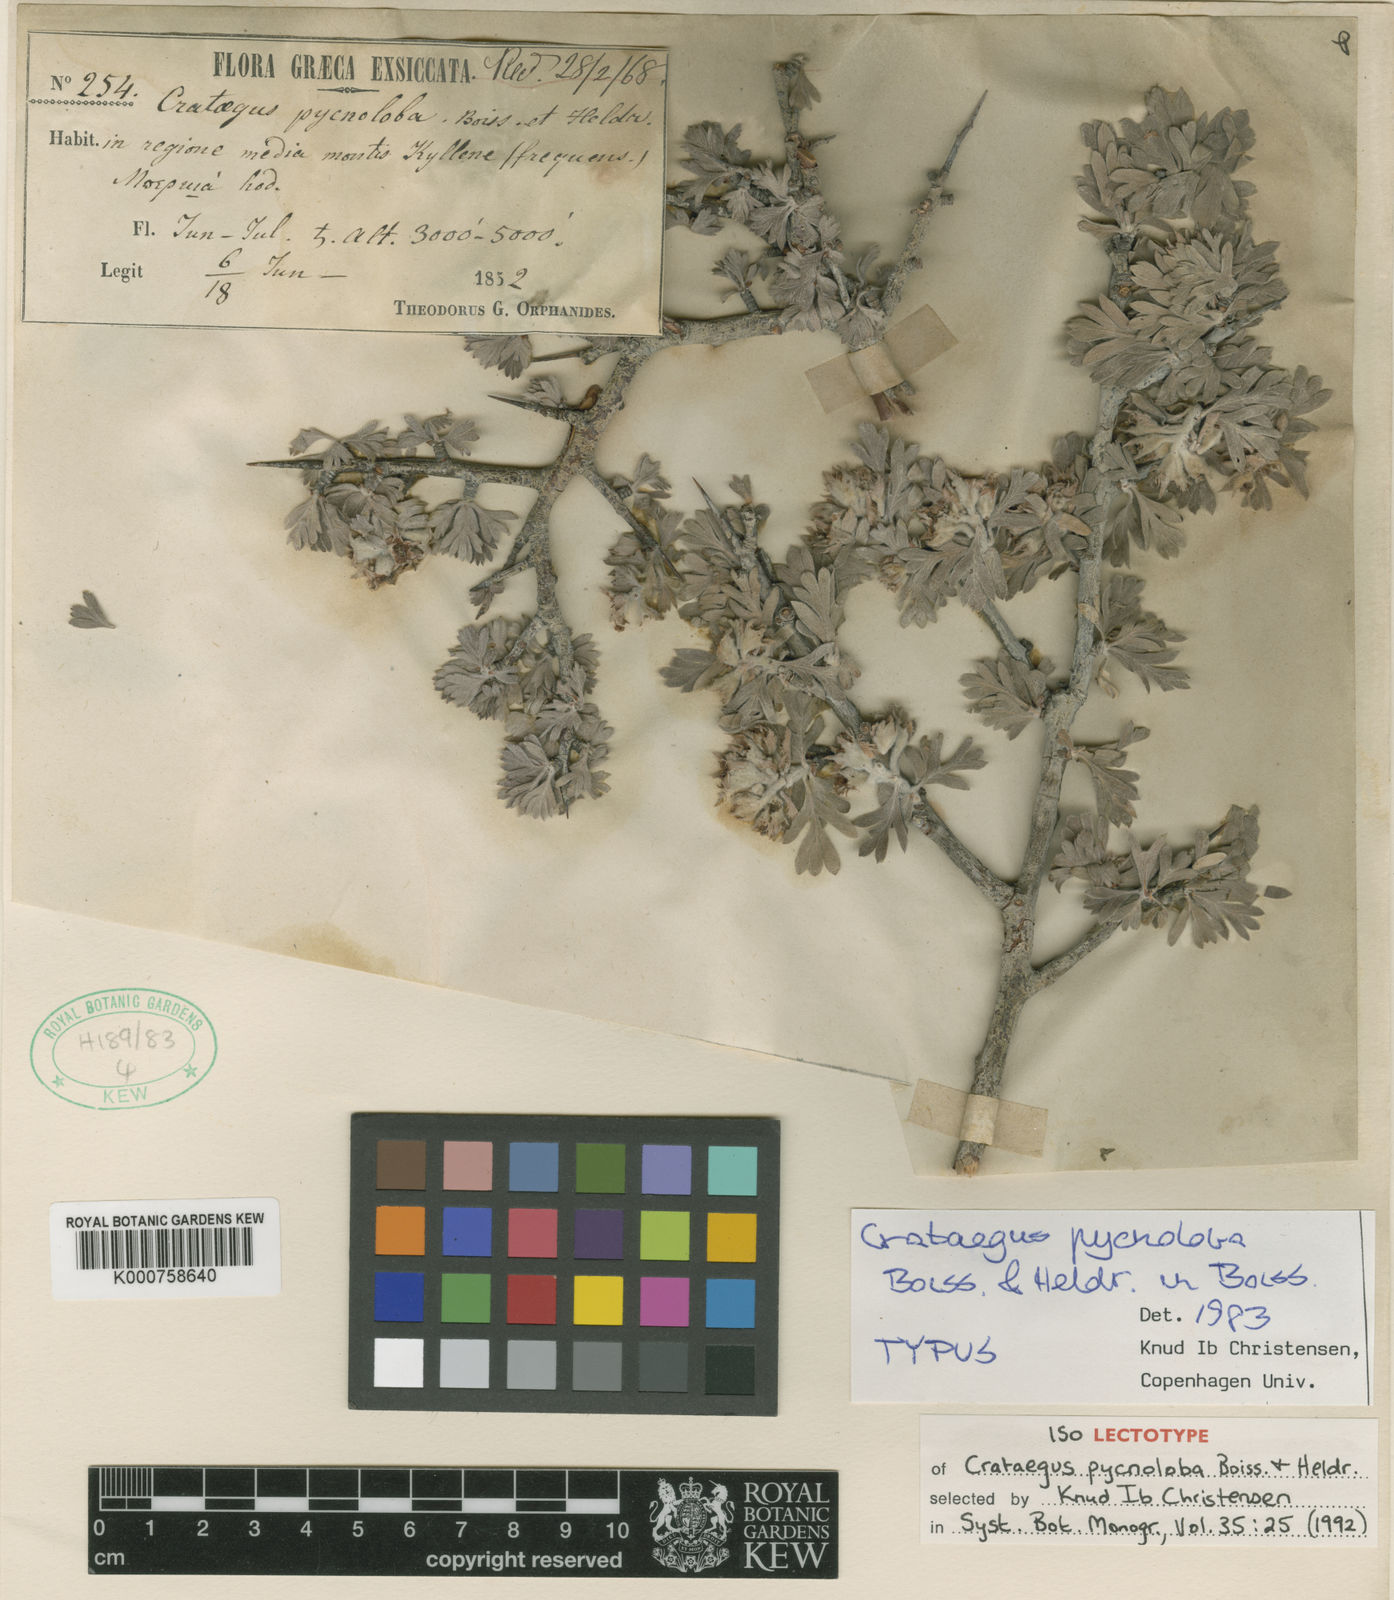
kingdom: Plantae
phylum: Tracheophyta
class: Magnoliopsida
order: Rosales
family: Rosaceae
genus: Crataegus
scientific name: Crataegus pycnoloba
